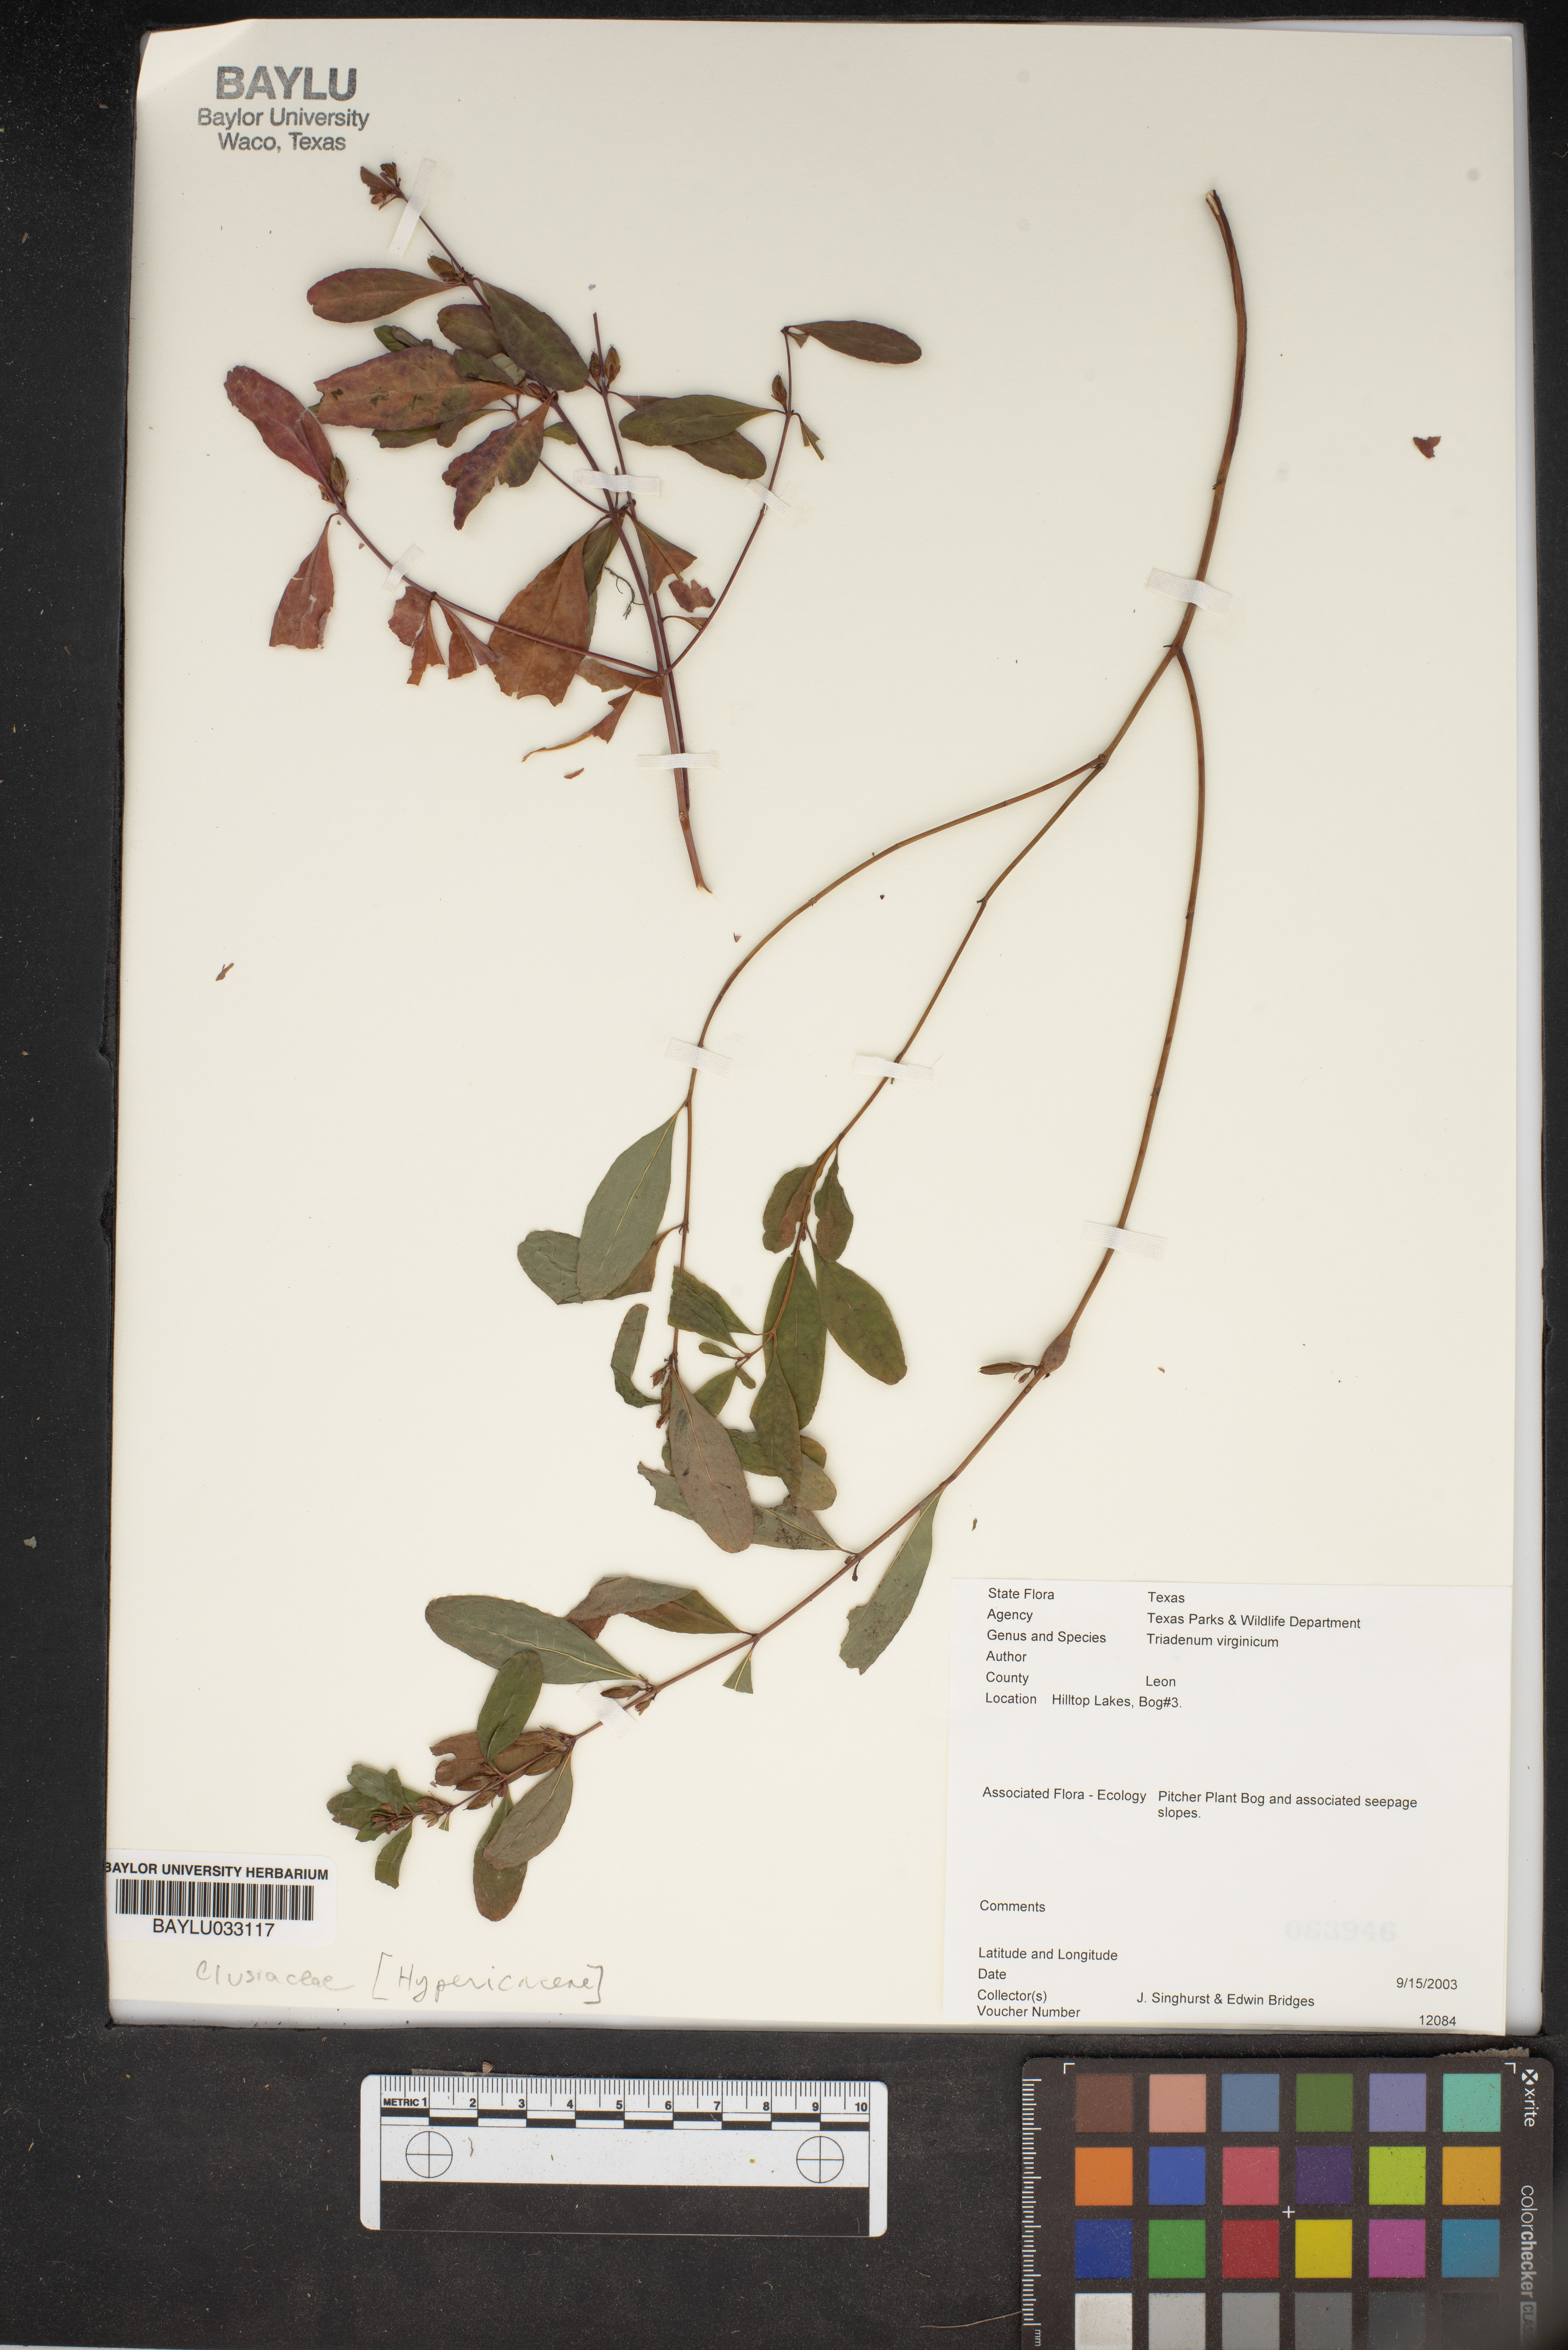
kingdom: Plantae
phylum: Tracheophyta
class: Magnoliopsida
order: Malpighiales
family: Hypericaceae
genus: Triadenum
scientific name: Triadenum virginicum
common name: Marsh st. john's-wort
